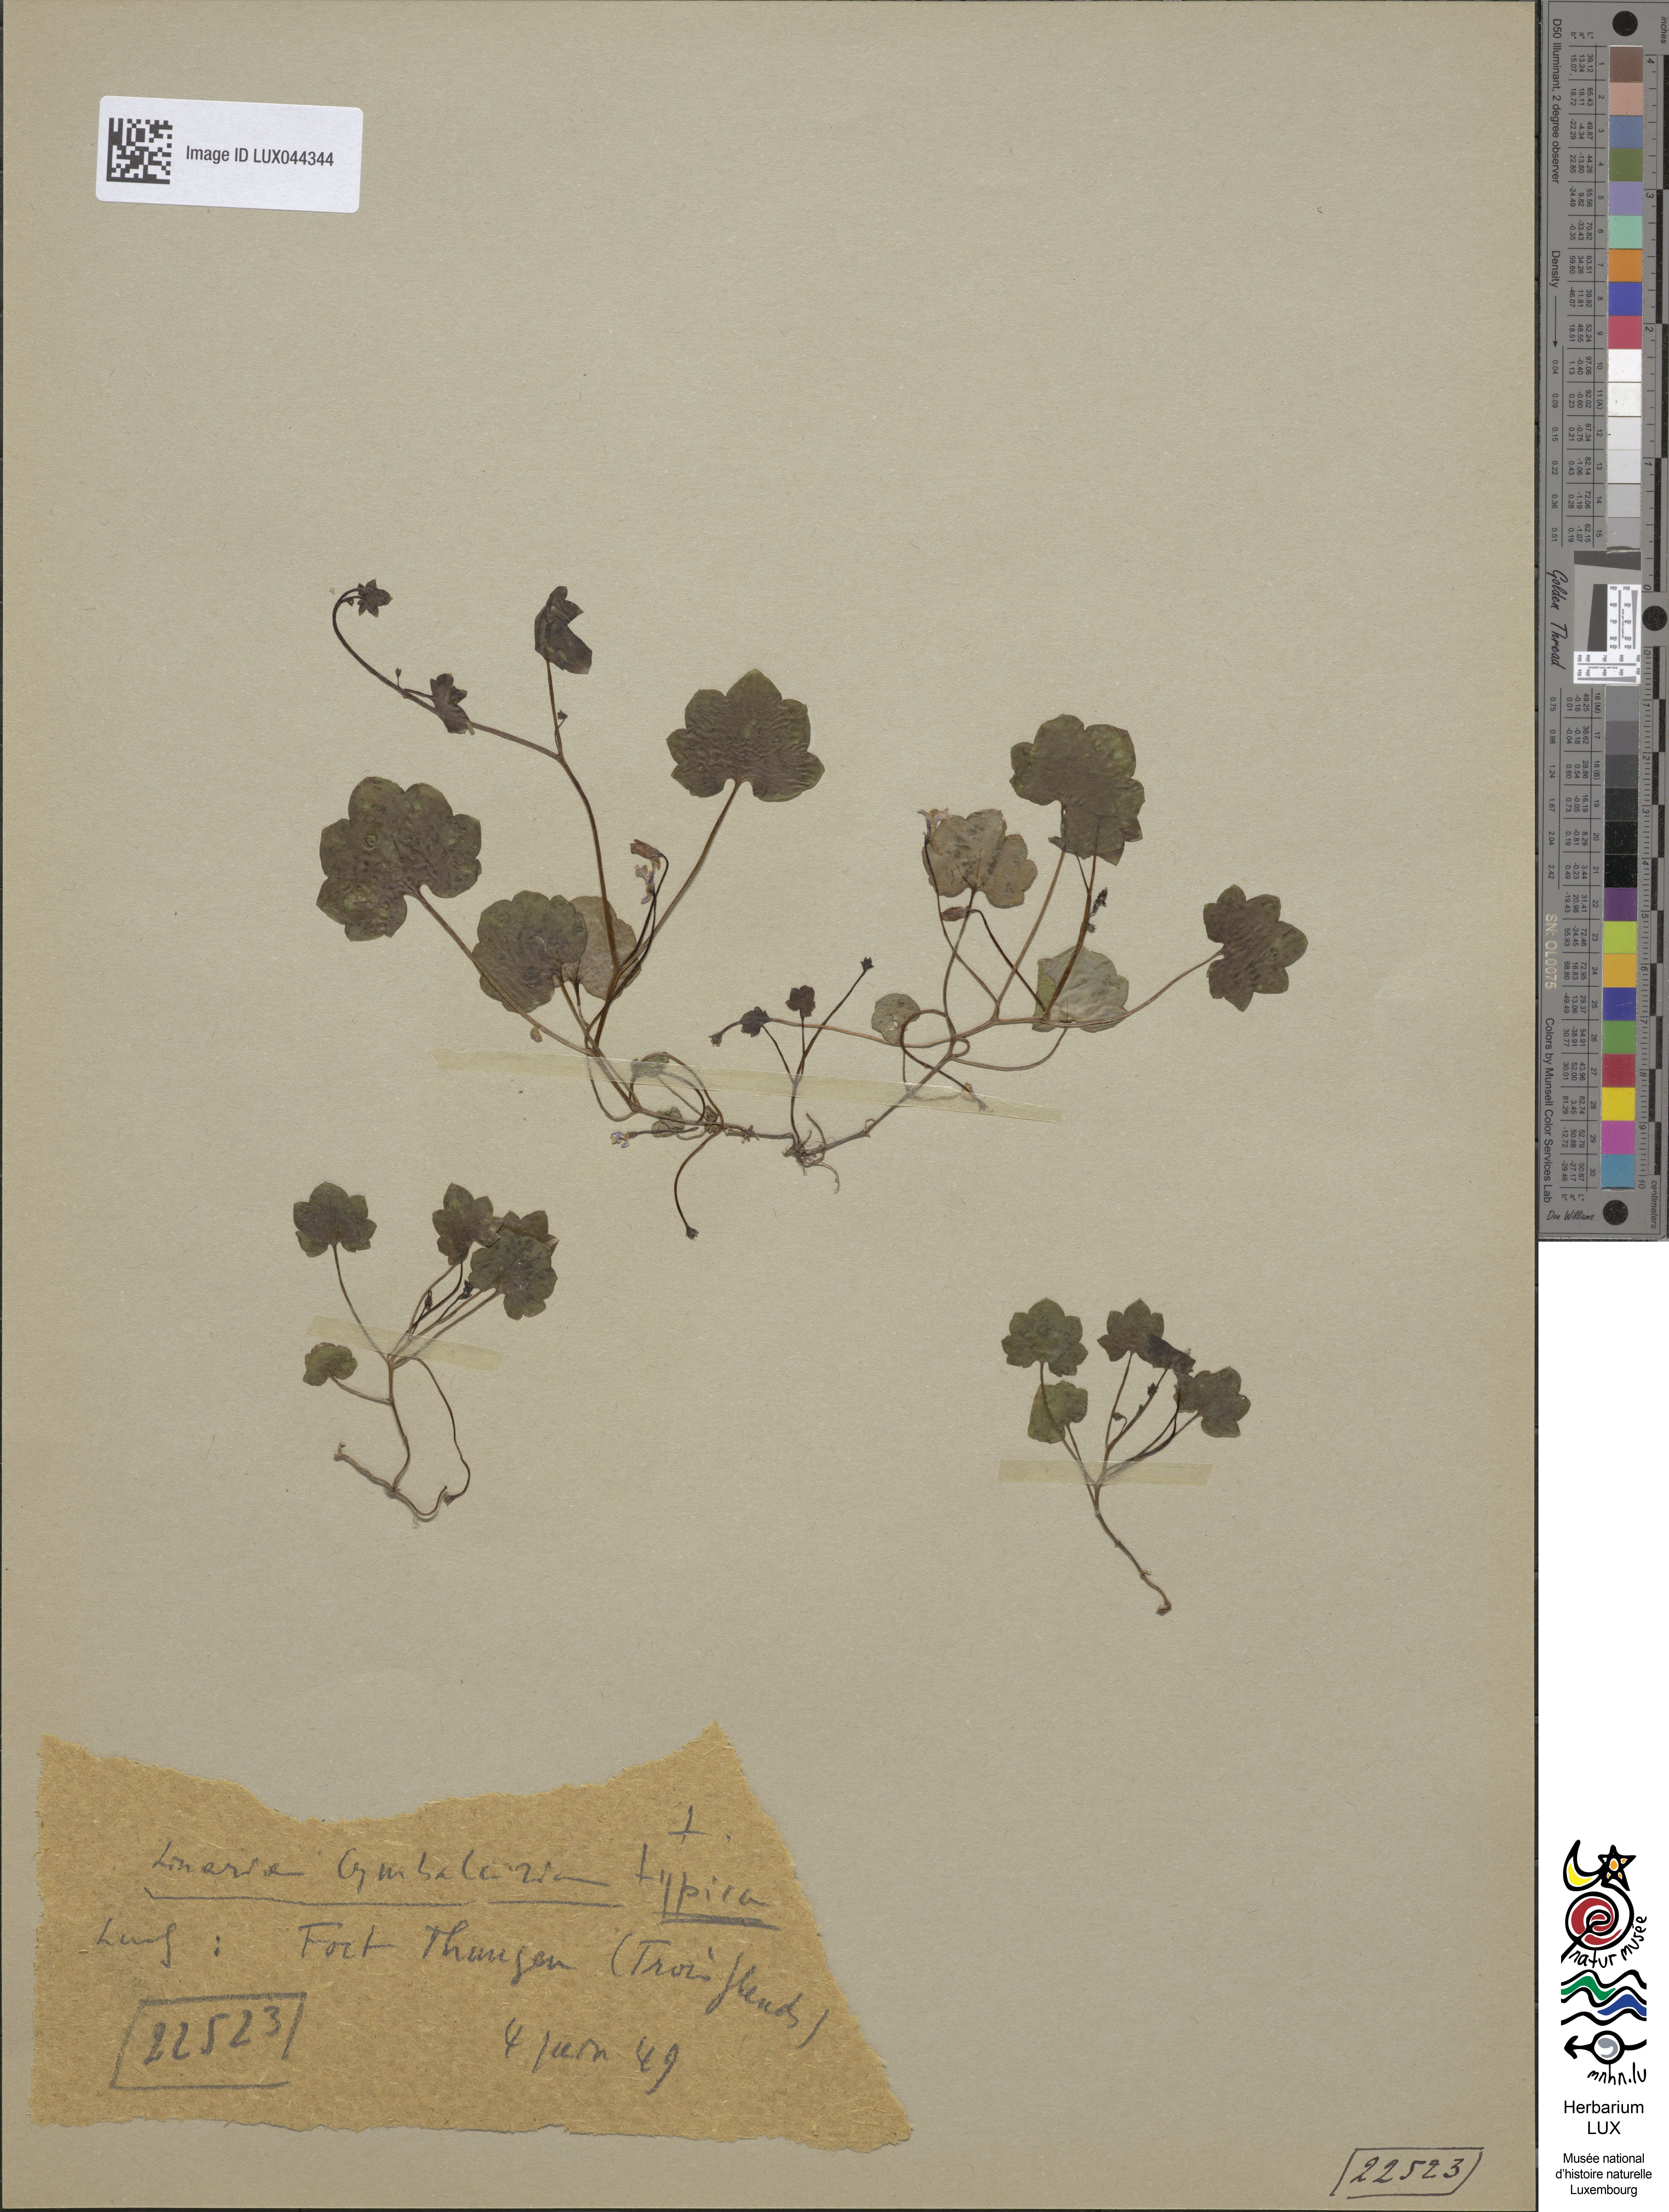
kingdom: Plantae
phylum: Tracheophyta
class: Magnoliopsida
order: Lamiales
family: Plantaginaceae
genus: Cymbalaria
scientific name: Cymbalaria muralis
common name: Ivy-leaved toadflax
